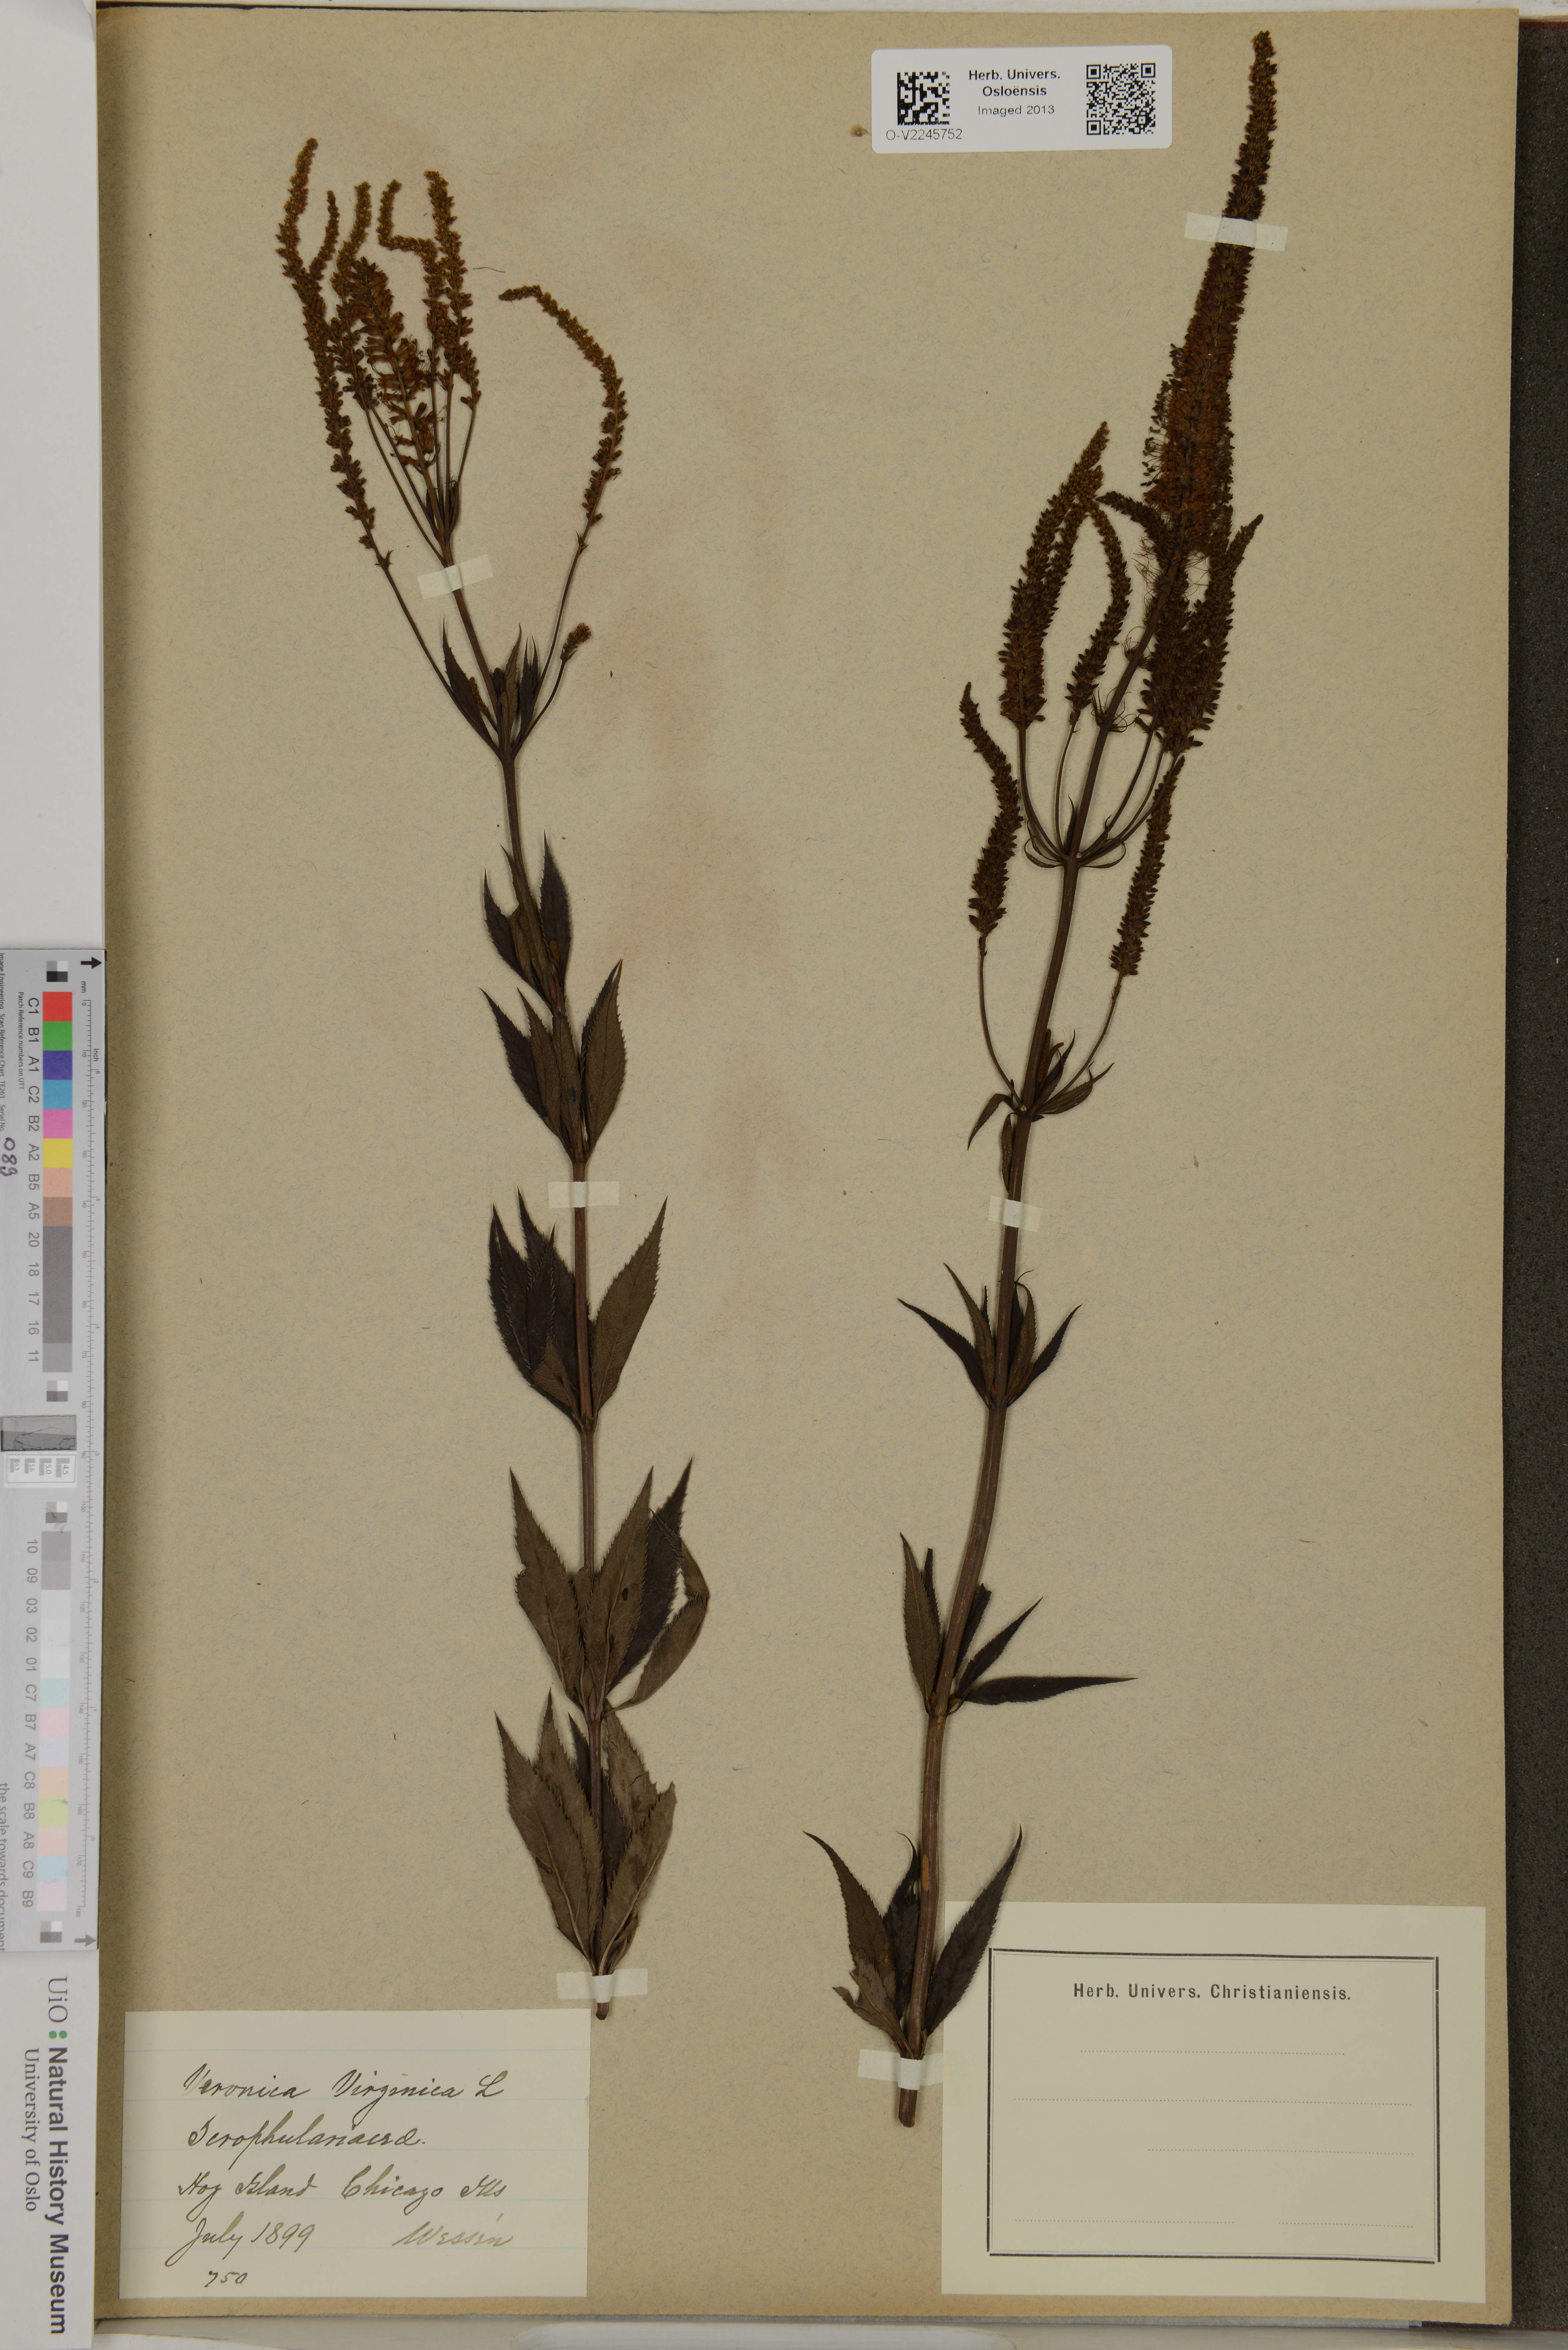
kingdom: Plantae
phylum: Tracheophyta
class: Magnoliopsida
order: Lamiales
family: Plantaginaceae
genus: Veronicastrum
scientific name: Veronicastrum virginicum
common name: Blackroot
